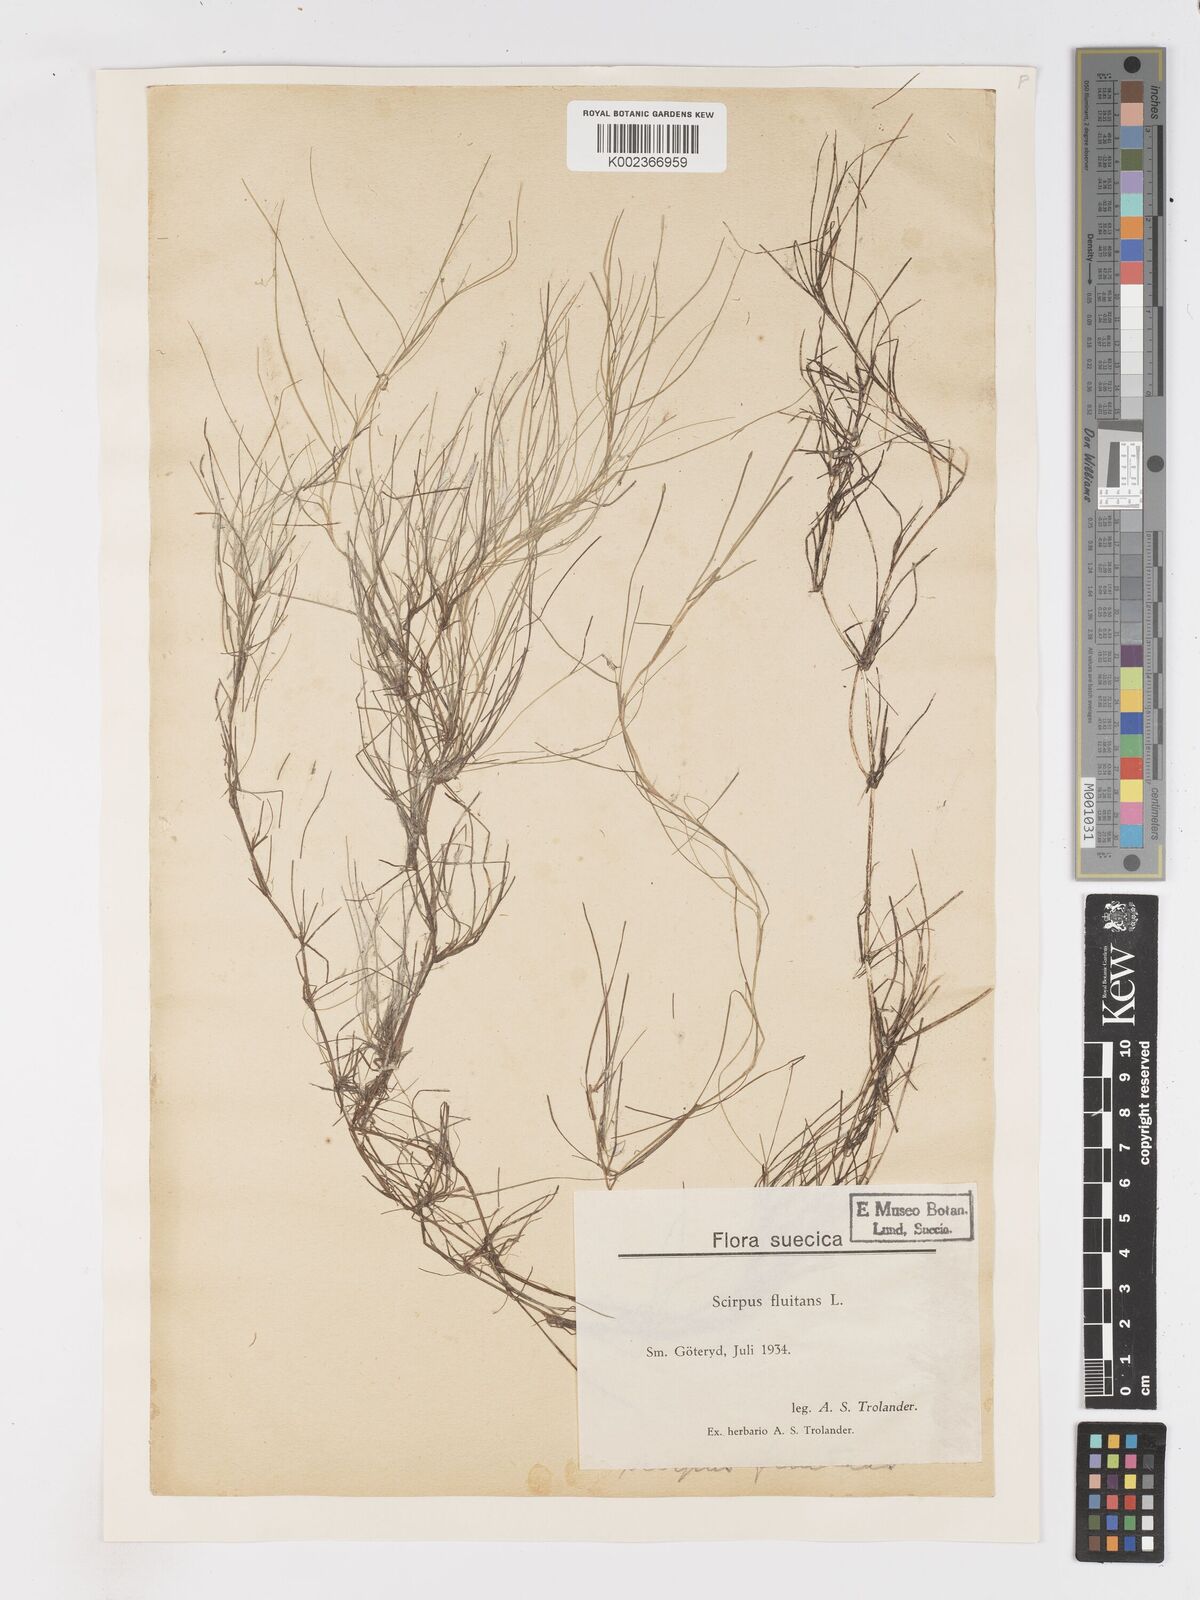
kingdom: Plantae
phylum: Tracheophyta
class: Liliopsida
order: Poales
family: Cyperaceae
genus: Isolepis
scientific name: Isolepis fluitans
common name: Floating club-rush
